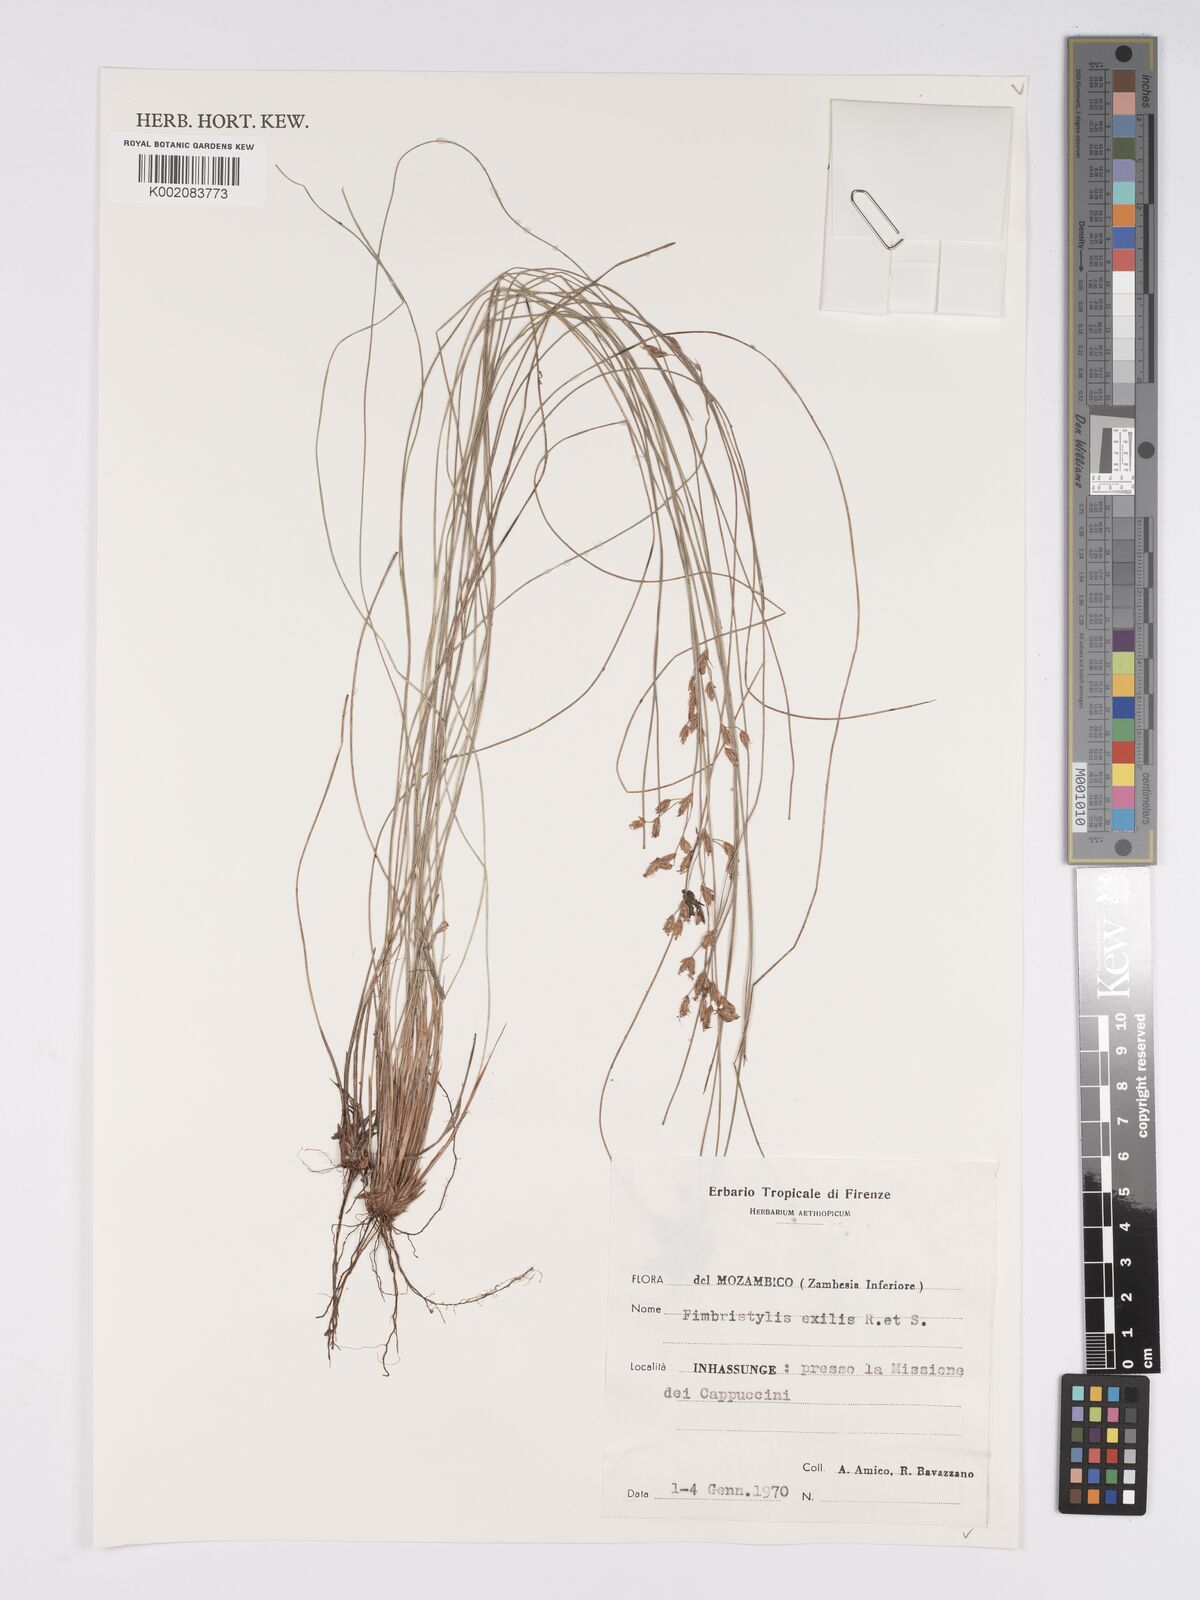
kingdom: Plantae
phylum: Tracheophyta
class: Liliopsida
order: Poales
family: Cyperaceae
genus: Bulbostylis
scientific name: Bulbostylis hispidula
